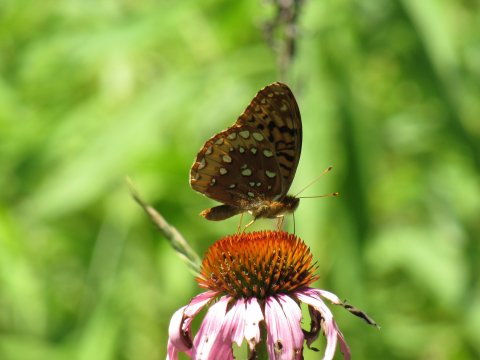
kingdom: Animalia
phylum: Arthropoda
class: Insecta
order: Lepidoptera
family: Nymphalidae
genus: Speyeria
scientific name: Speyeria cybele
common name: Great Spangled Fritillary
